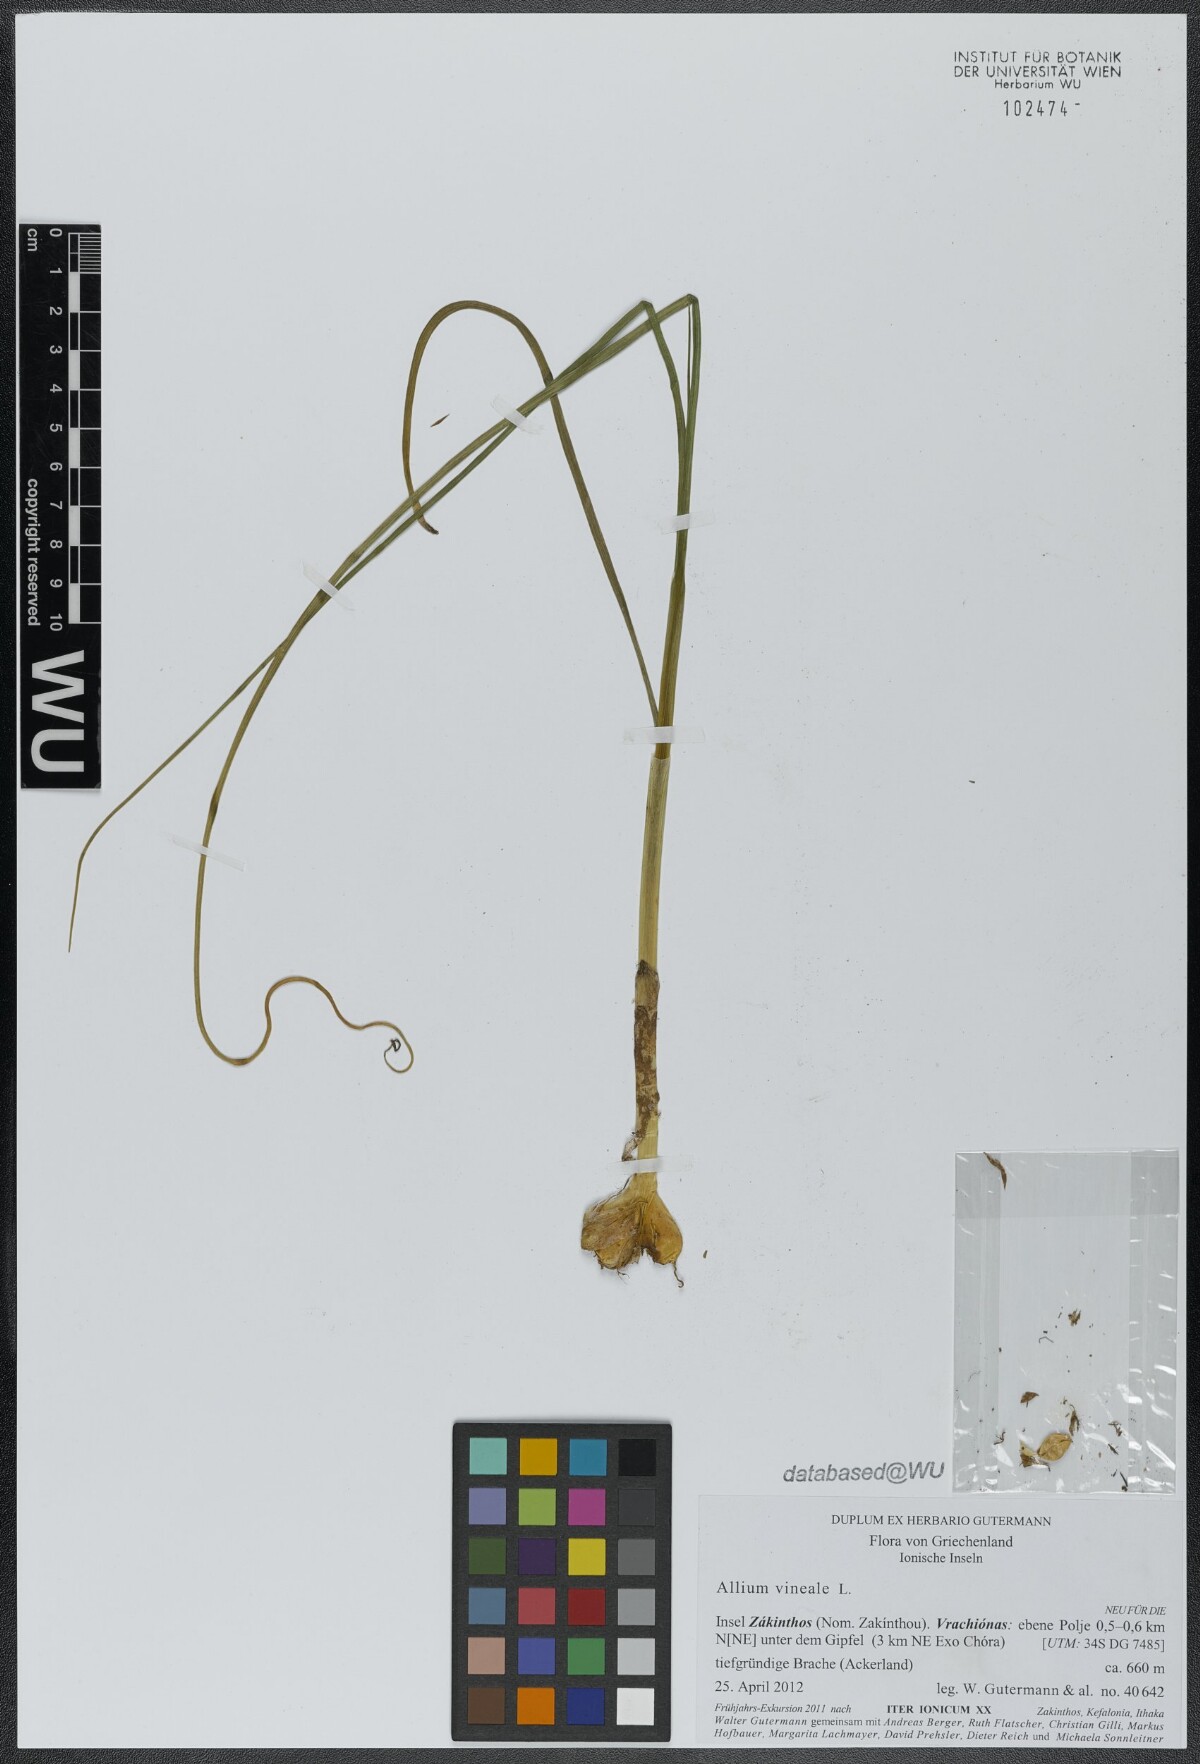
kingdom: Plantae
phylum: Tracheophyta
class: Liliopsida
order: Asparagales
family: Amaryllidaceae
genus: Allium
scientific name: Allium sardoum
